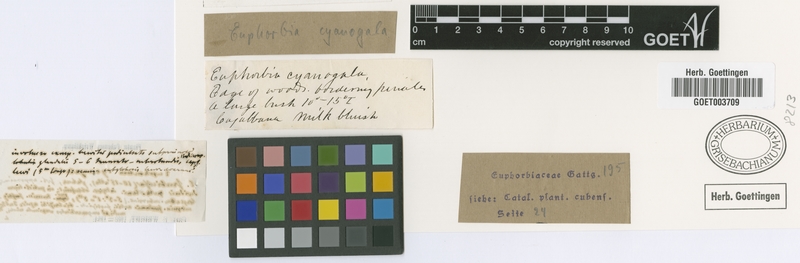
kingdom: Plantae
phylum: Tracheophyta
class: Magnoliopsida
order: Malpighiales
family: Euphorbiaceae
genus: Euphorbia
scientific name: Euphorbia cubensis
